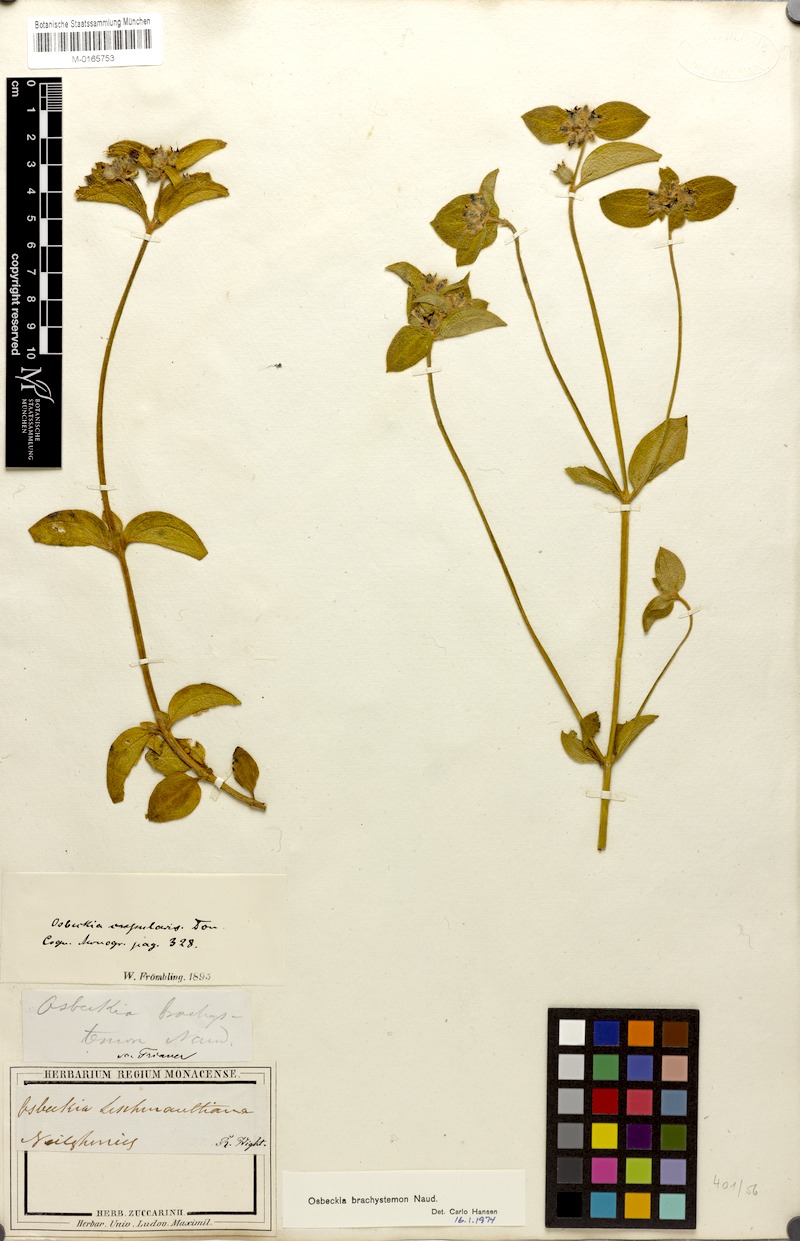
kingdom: Plantae
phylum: Tracheophyta
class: Magnoliopsida
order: Myrtales
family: Melastomataceae
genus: Osbeckia
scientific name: Osbeckia brachystemon
